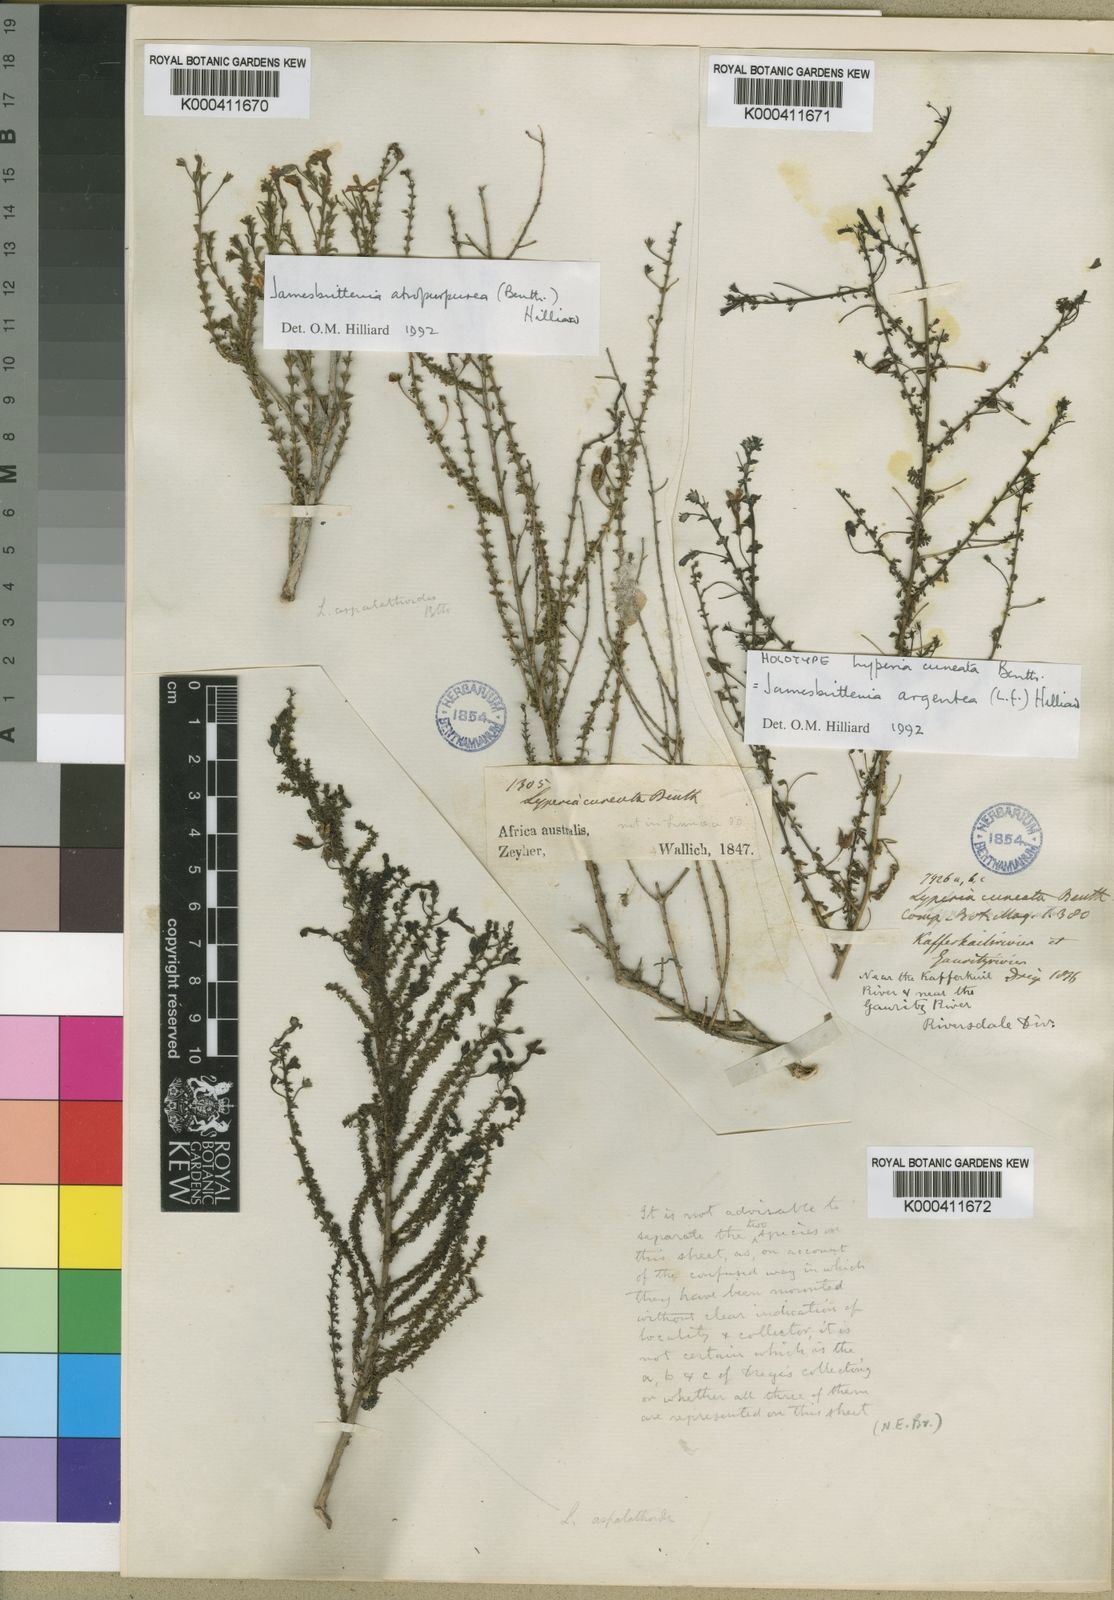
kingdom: Plantae
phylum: Tracheophyta
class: Magnoliopsida
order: Lamiales
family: Scrophulariaceae
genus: Jamesbrittenia
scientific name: Jamesbrittenia argentea
